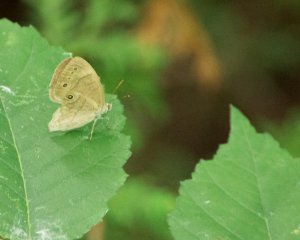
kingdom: Animalia
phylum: Arthropoda
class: Insecta
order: Lepidoptera
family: Nymphalidae
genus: Lethe
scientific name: Lethe eurydice
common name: Eyed Brown
